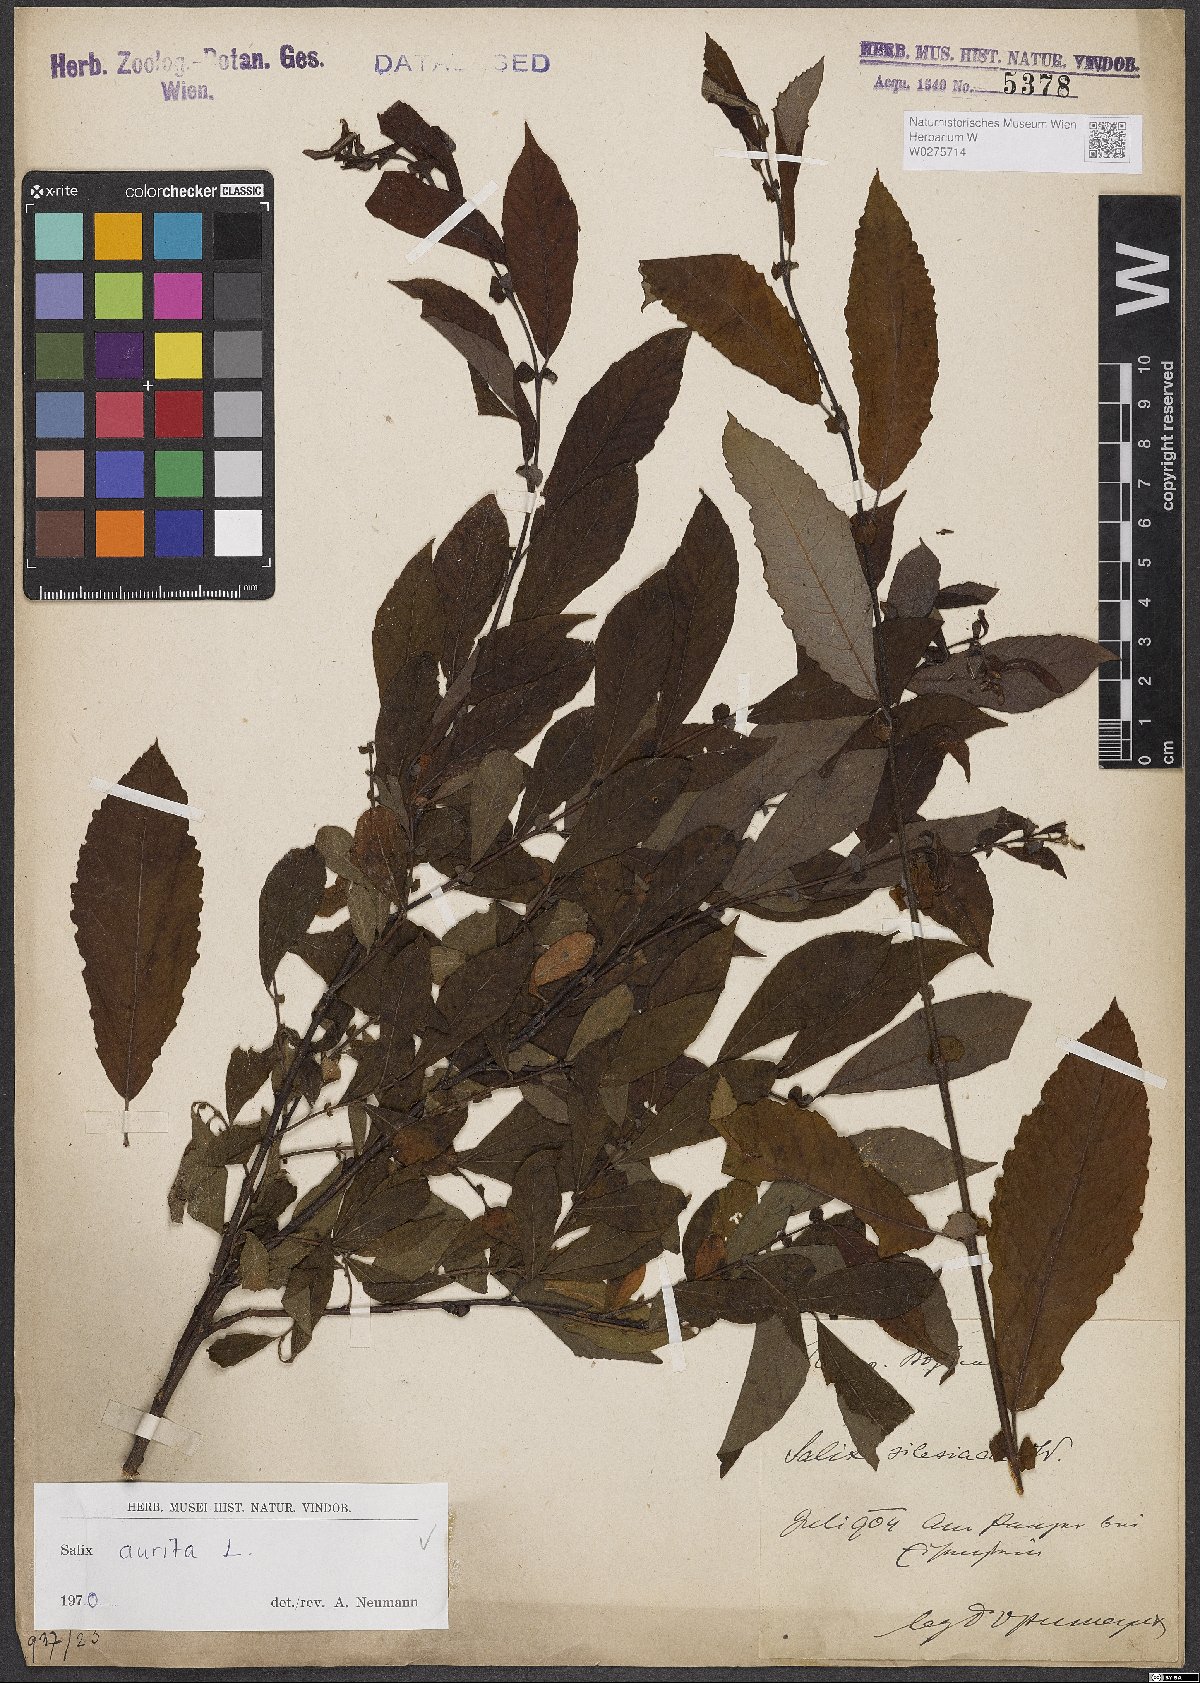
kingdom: Plantae
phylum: Tracheophyta
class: Magnoliopsida
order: Malpighiales
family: Salicaceae
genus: Salix
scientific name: Salix aurita
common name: Eared willow
